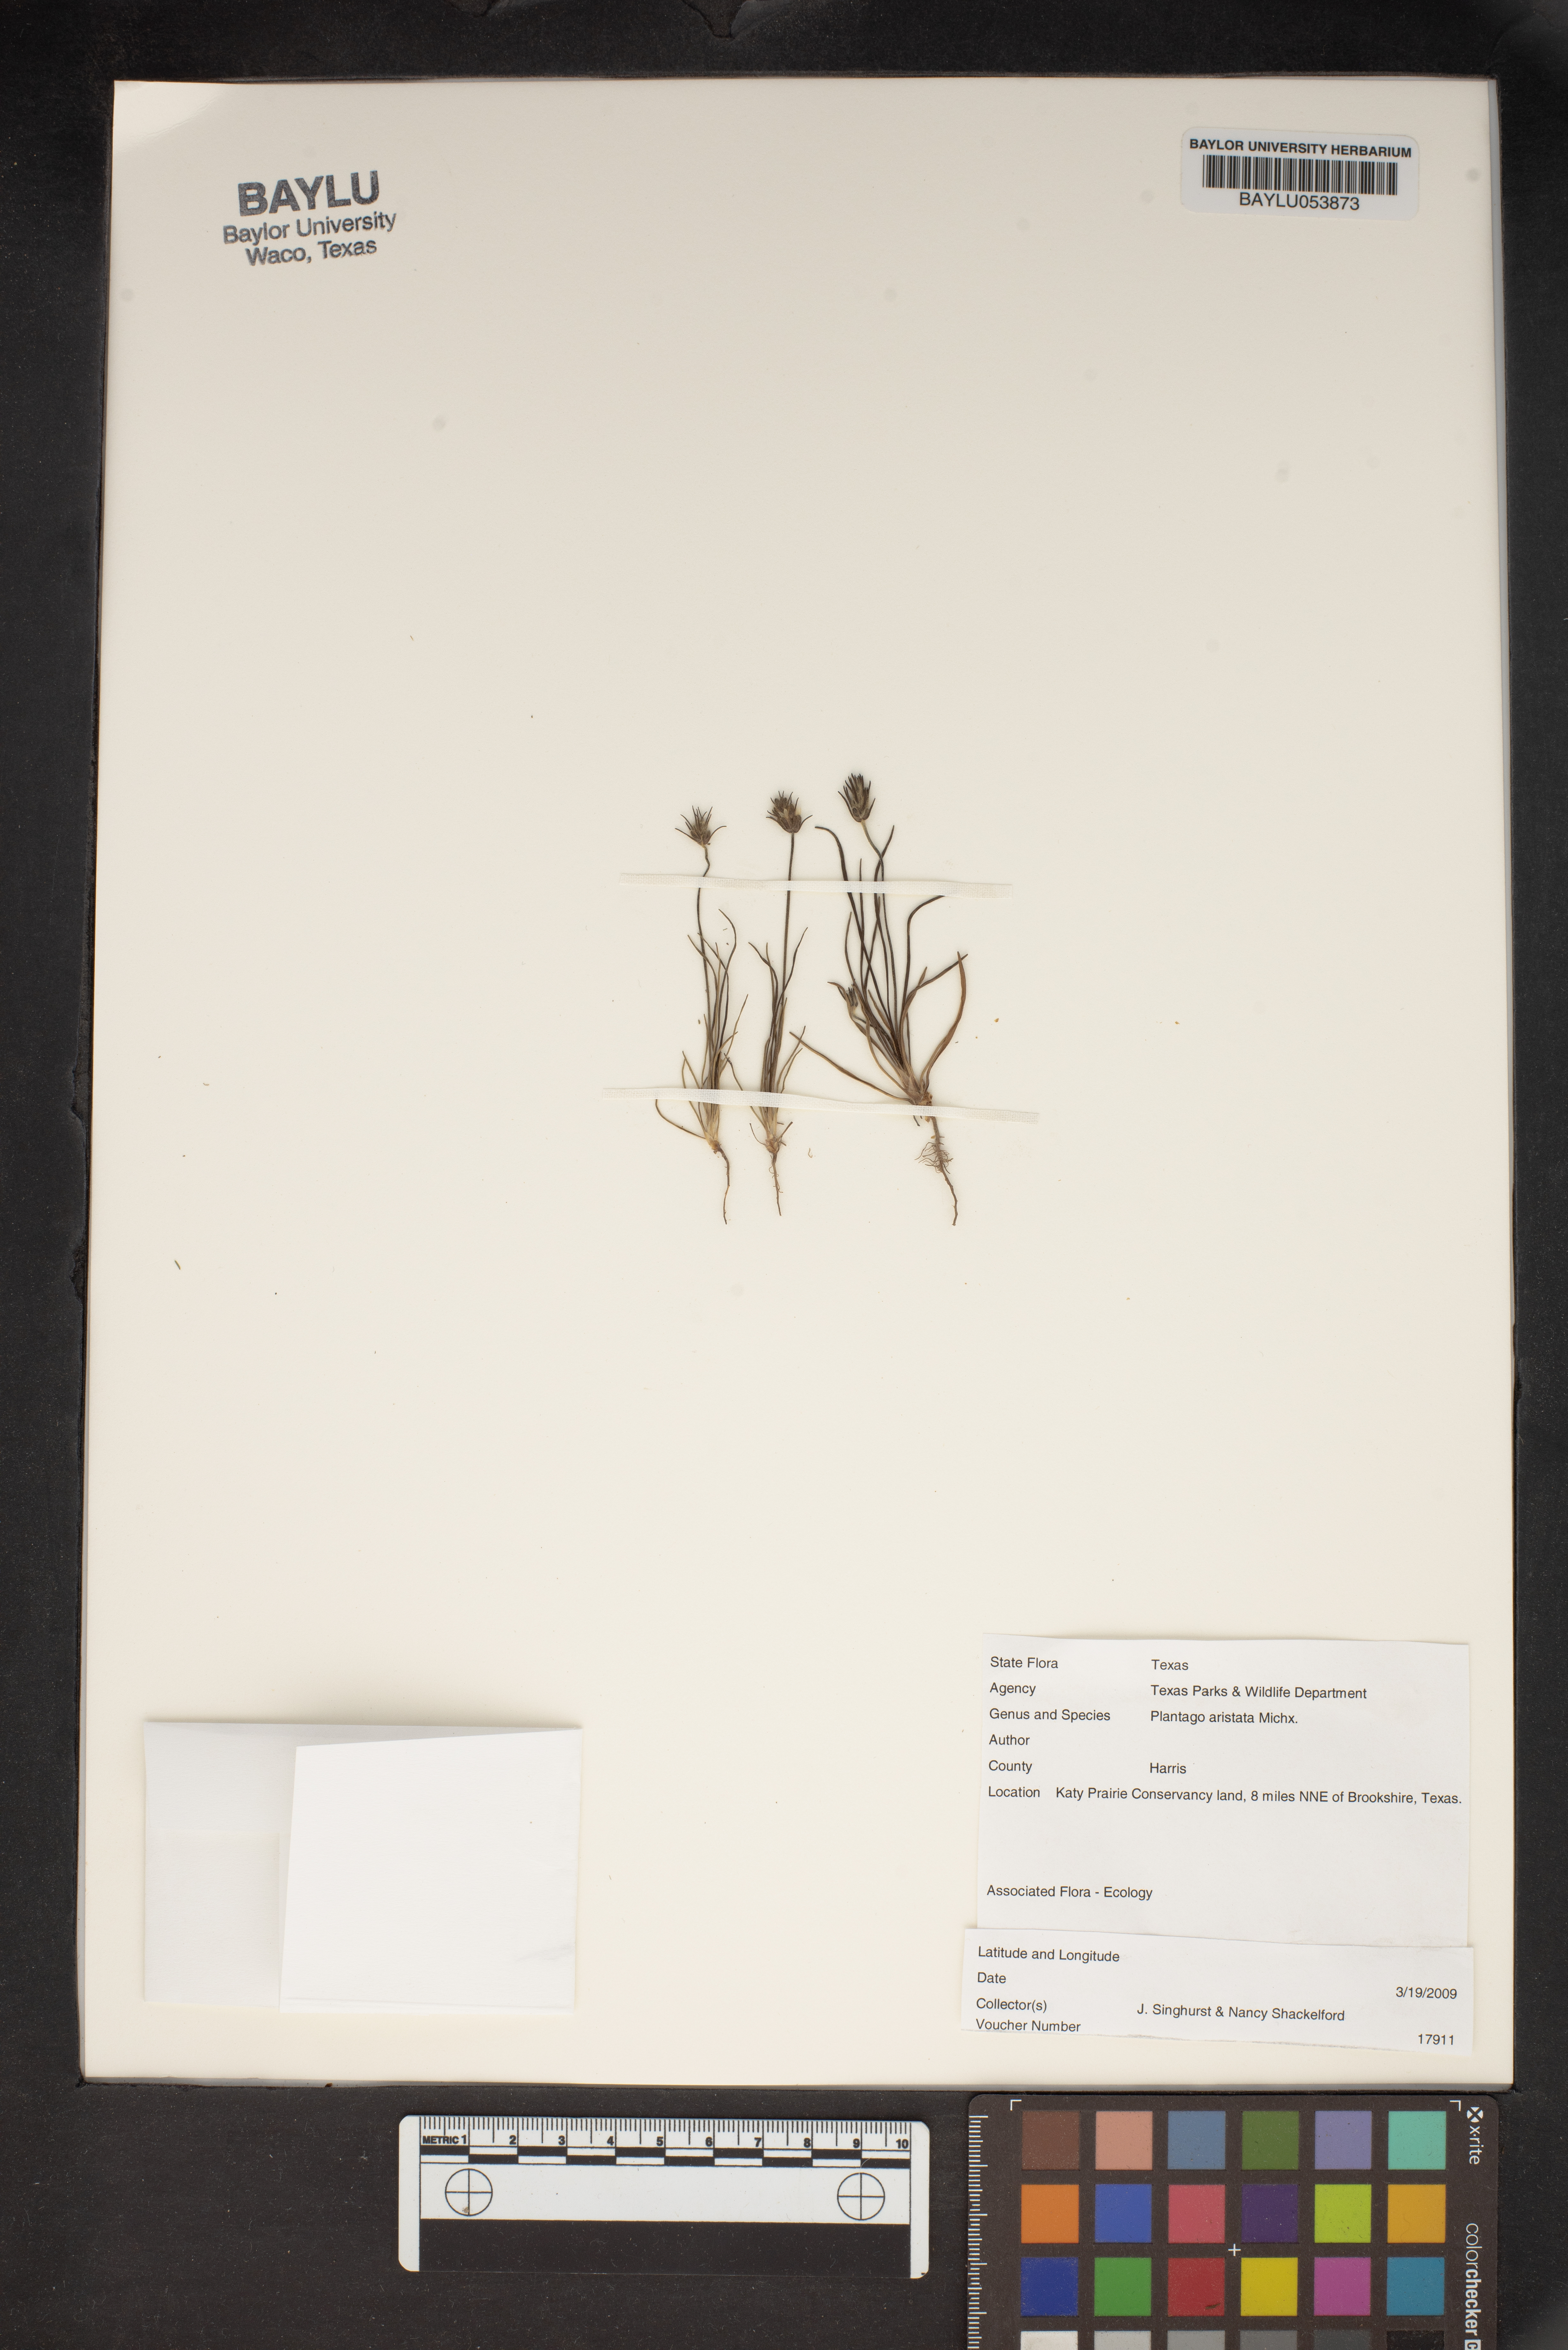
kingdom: Plantae
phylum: Tracheophyta
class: Magnoliopsida
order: Lamiales
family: Plantaginaceae
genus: Plantago
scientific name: Plantago aristata
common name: Bracted plantain
